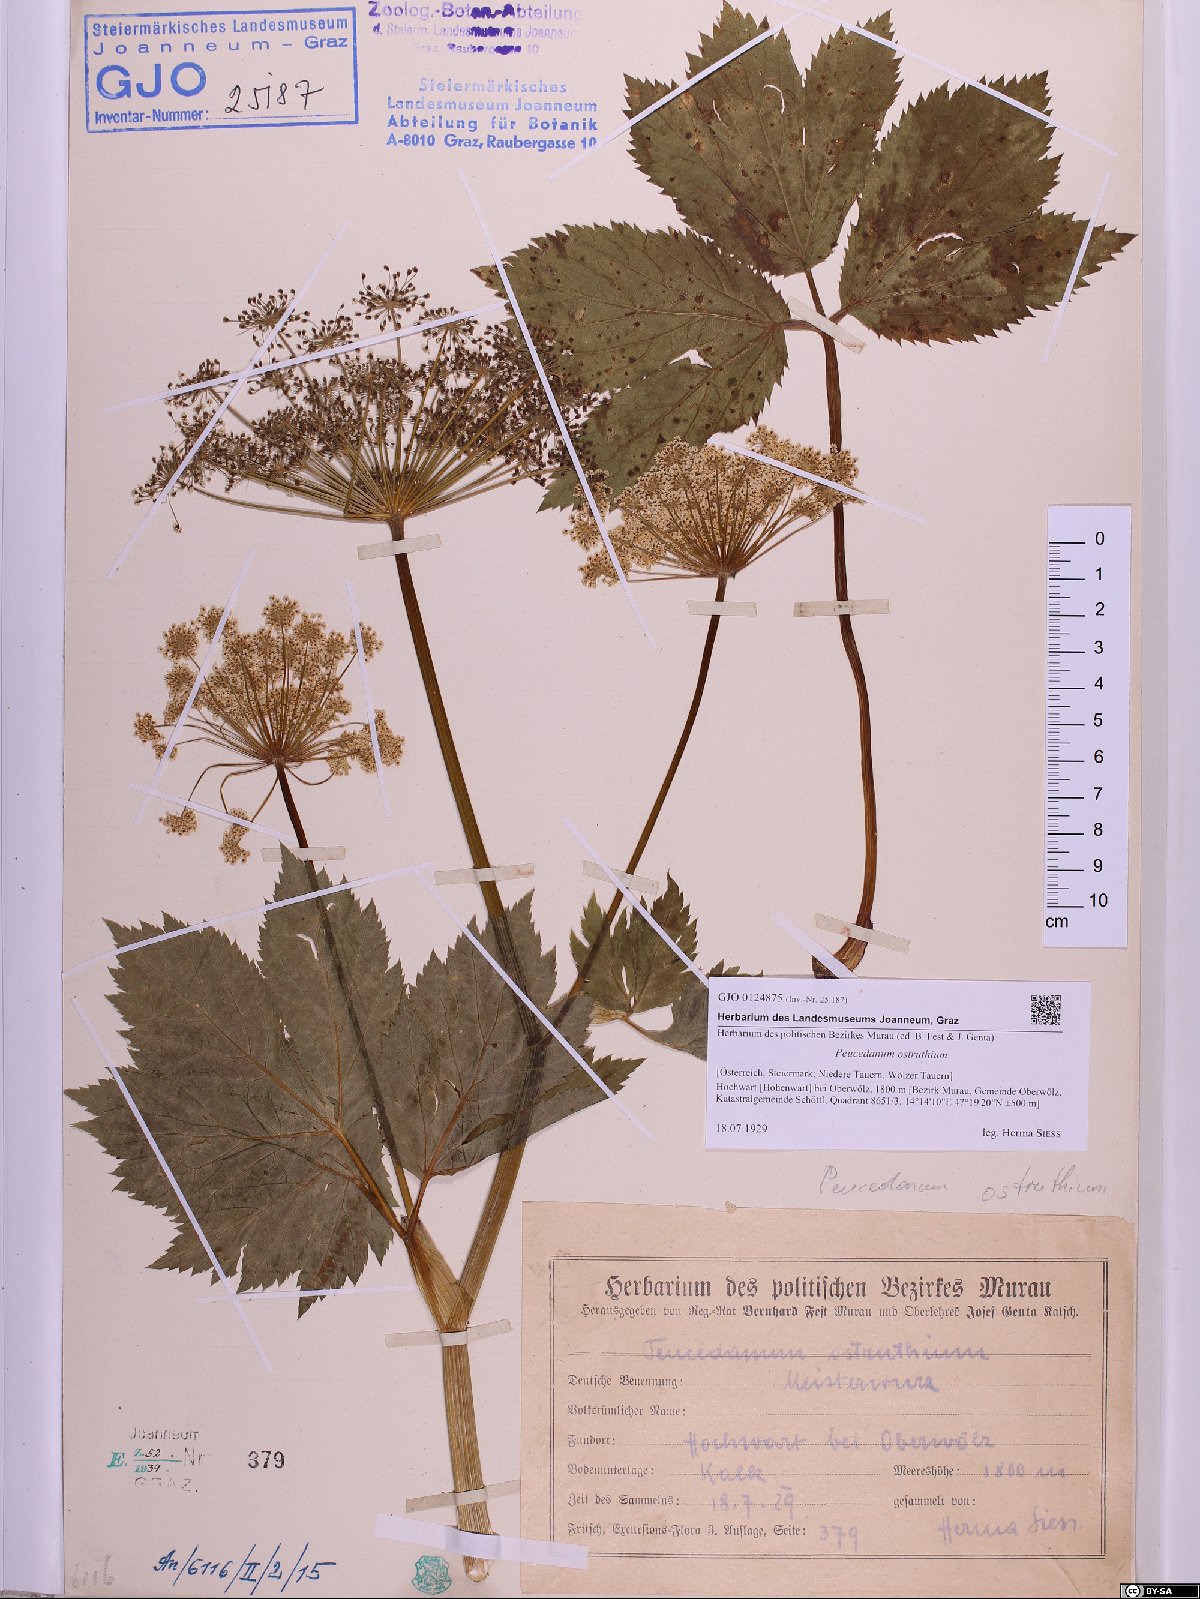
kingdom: Plantae
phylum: Tracheophyta
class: Magnoliopsida
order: Apiales
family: Apiaceae
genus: Imperatoria
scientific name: Imperatoria ostruthium
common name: Masterwort
